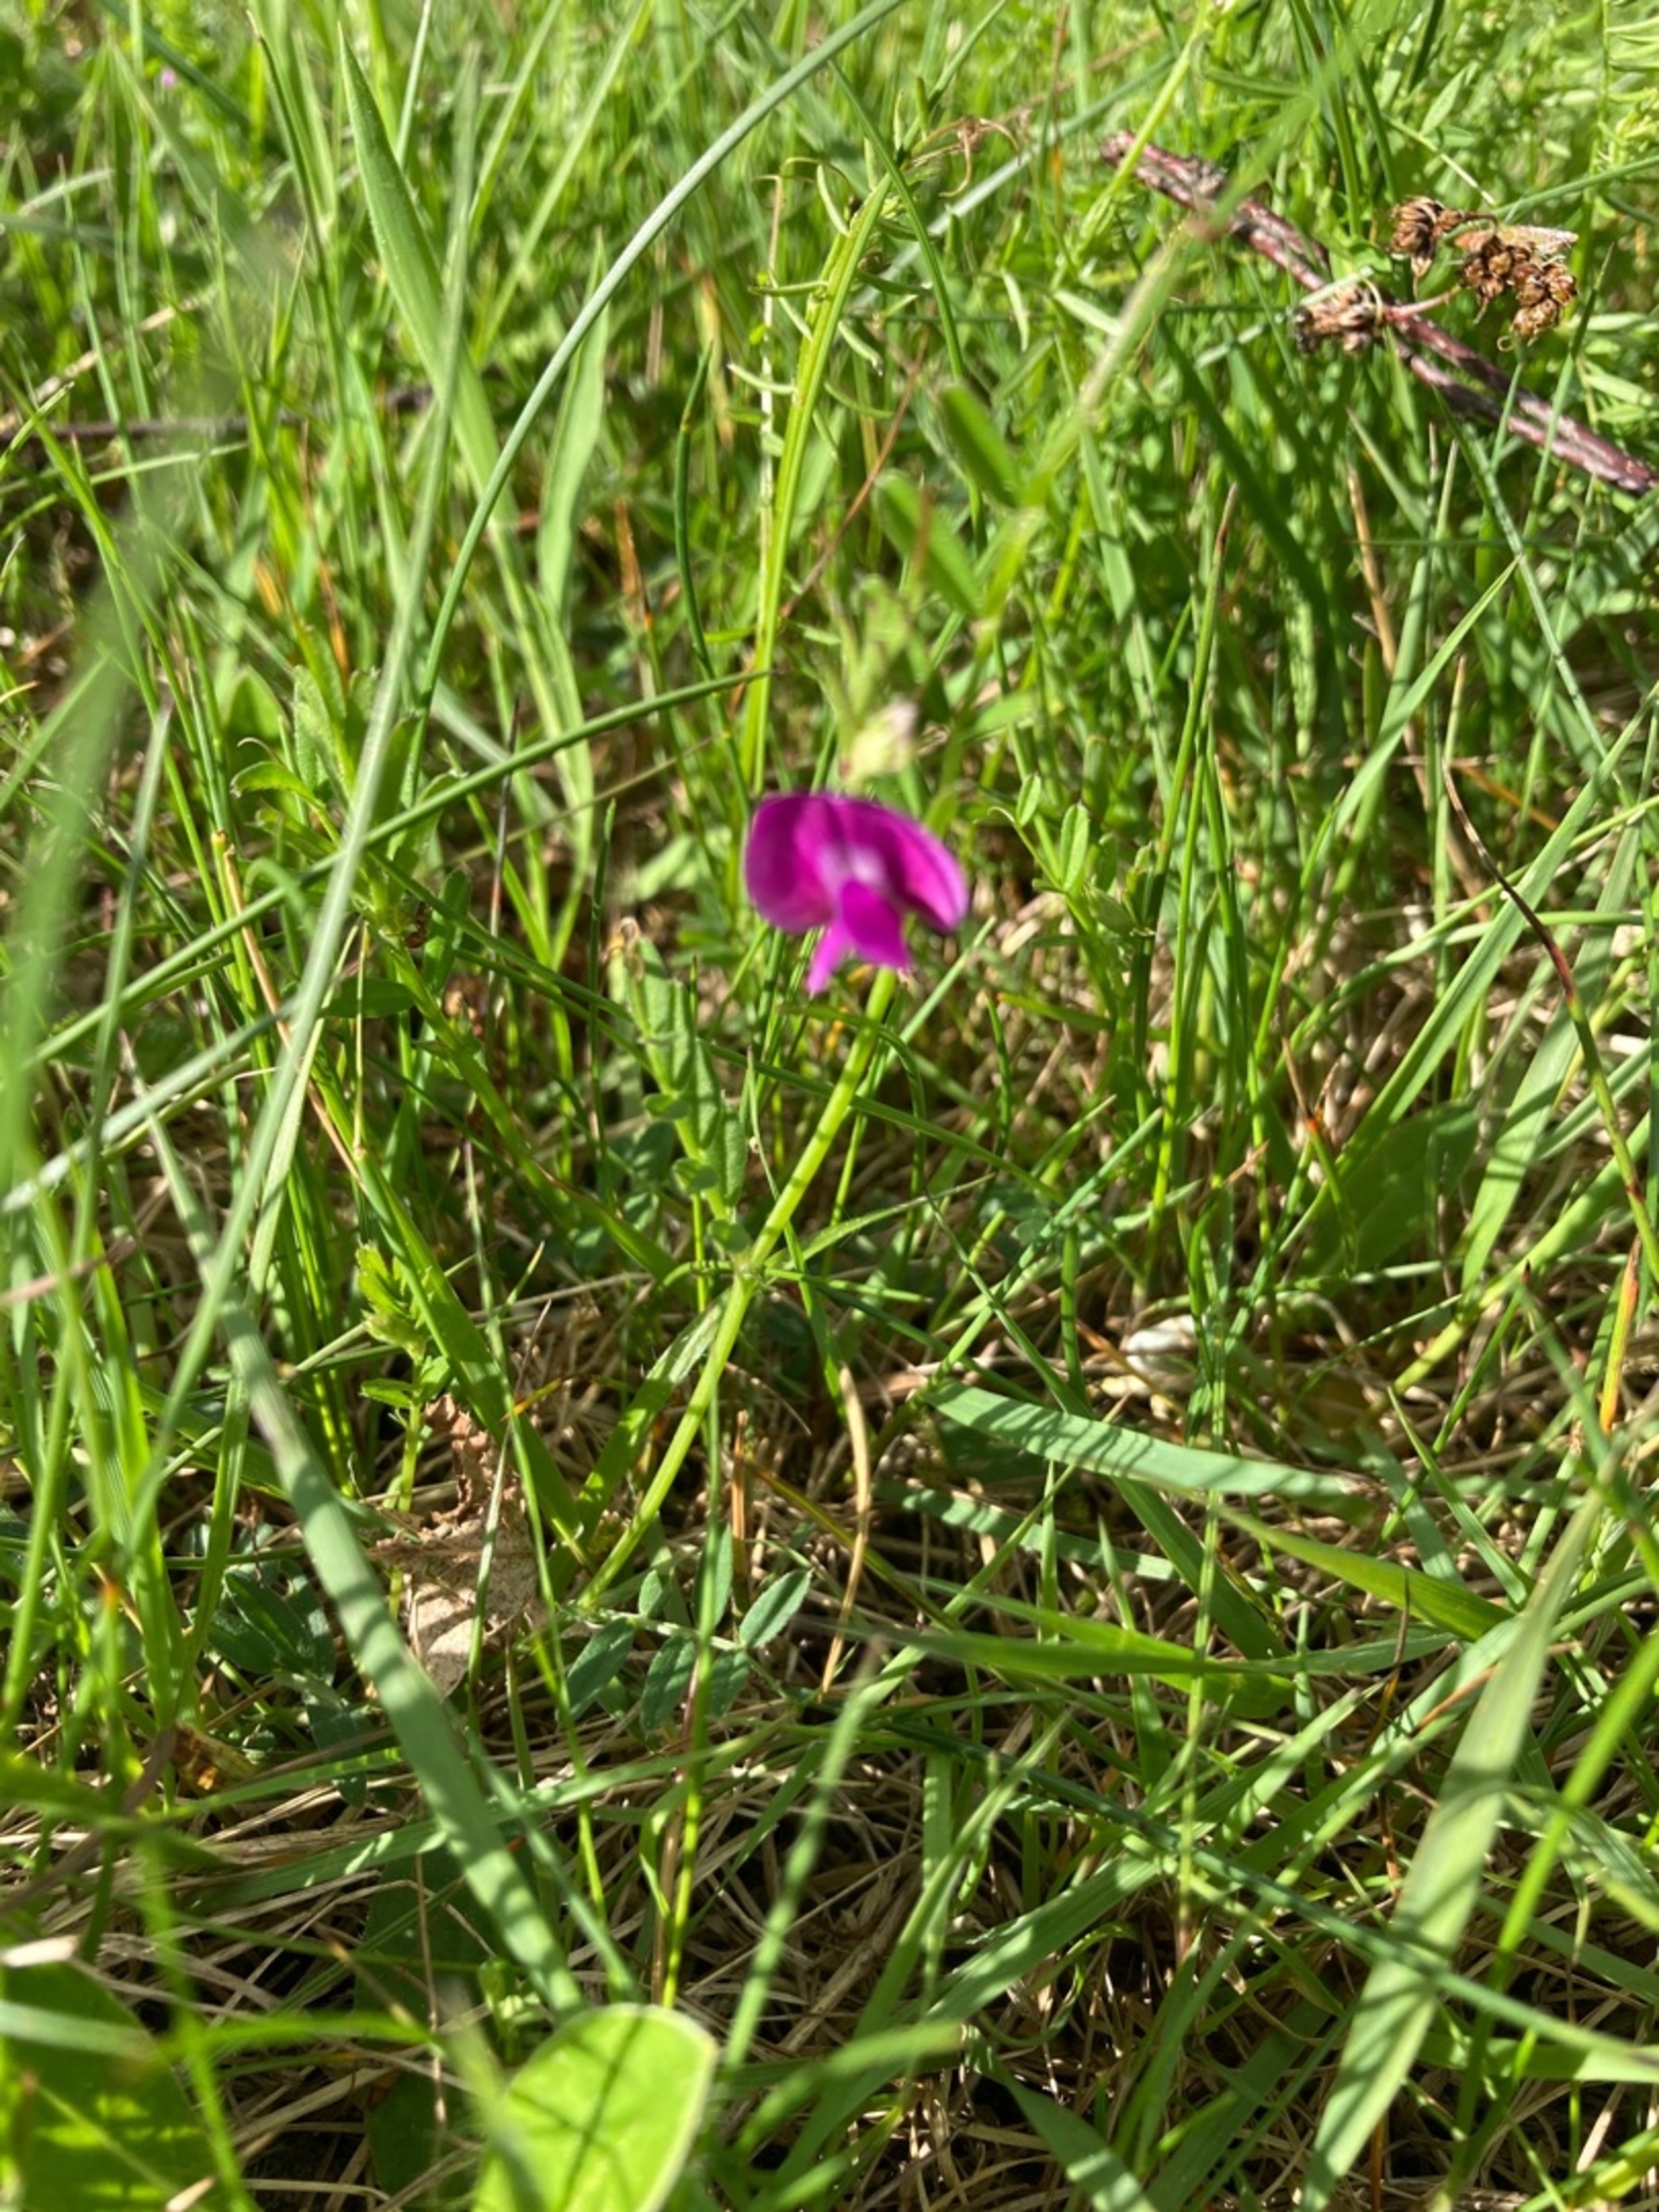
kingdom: Plantae
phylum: Tracheophyta
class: Magnoliopsida
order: Fabales
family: Fabaceae
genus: Vicia
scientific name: Vicia sativa
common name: Foder-vikke
